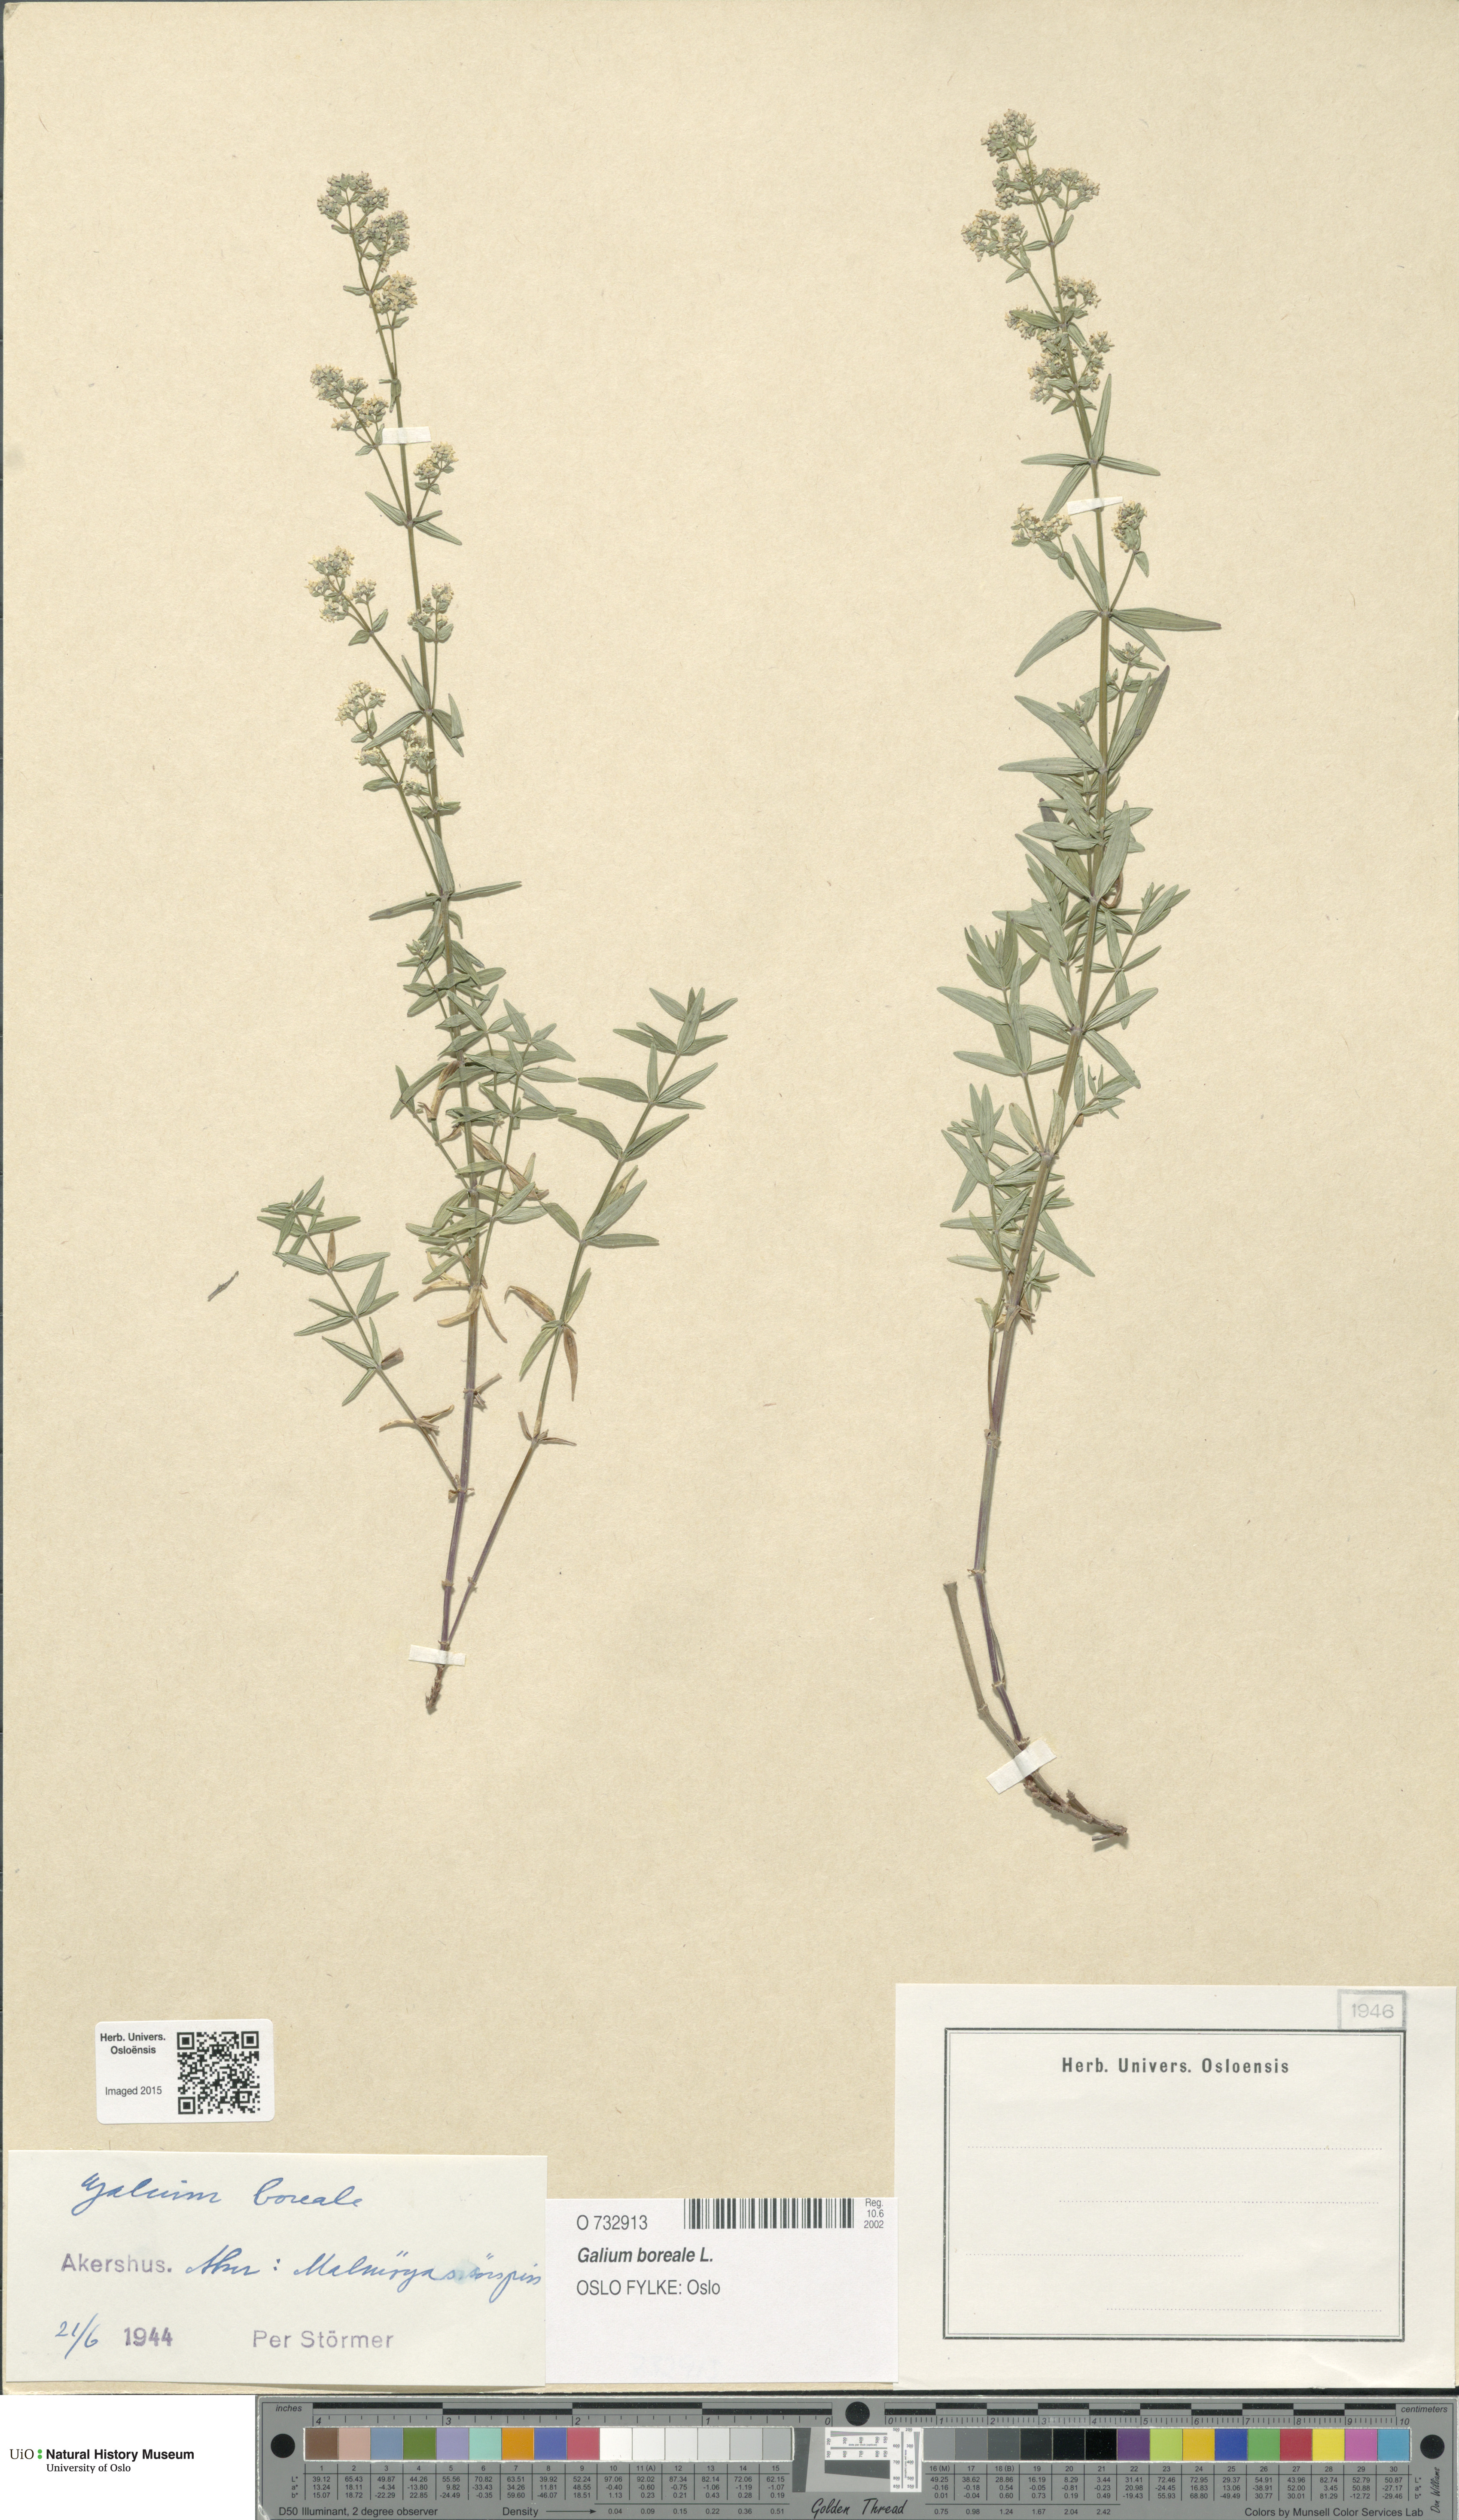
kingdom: Plantae
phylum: Tracheophyta
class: Magnoliopsida
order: Gentianales
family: Rubiaceae
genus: Galium
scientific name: Galium boreale
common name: Northern bedstraw
